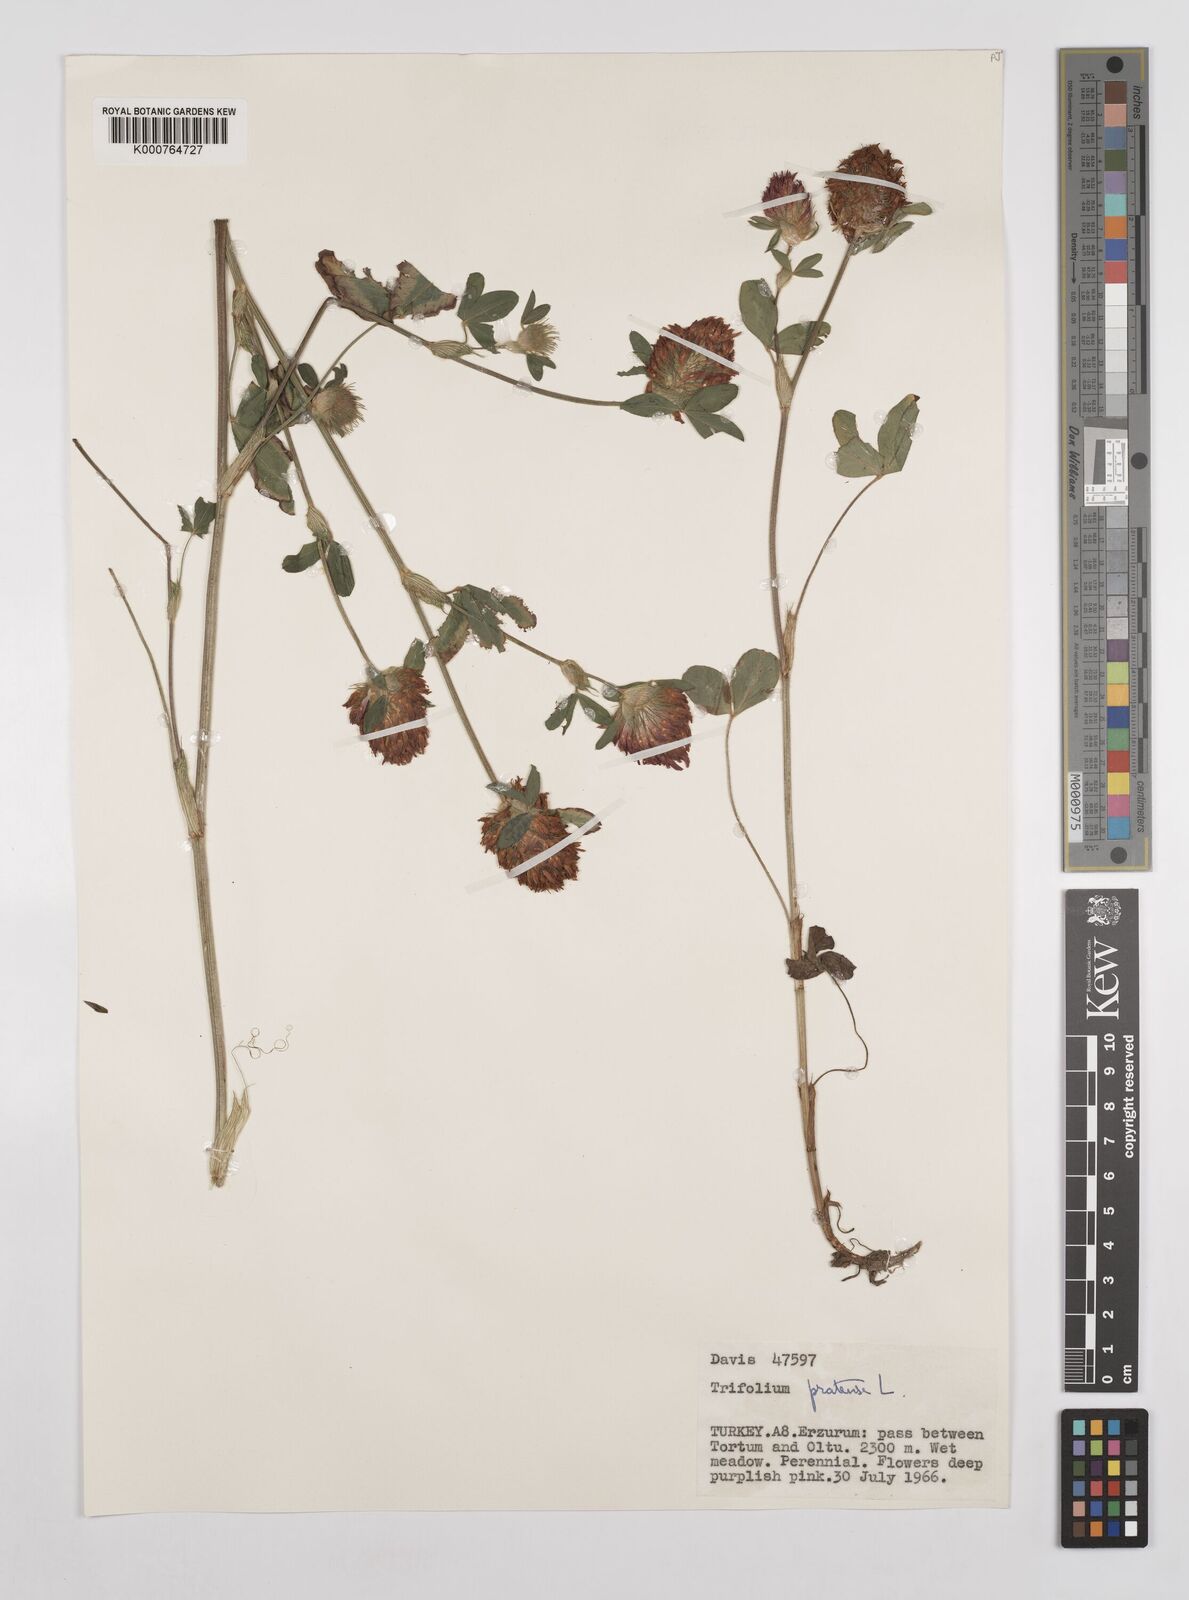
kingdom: Plantae
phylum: Tracheophyta
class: Magnoliopsida
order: Fabales
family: Fabaceae
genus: Trifolium
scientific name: Trifolium pratense
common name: Red clover
